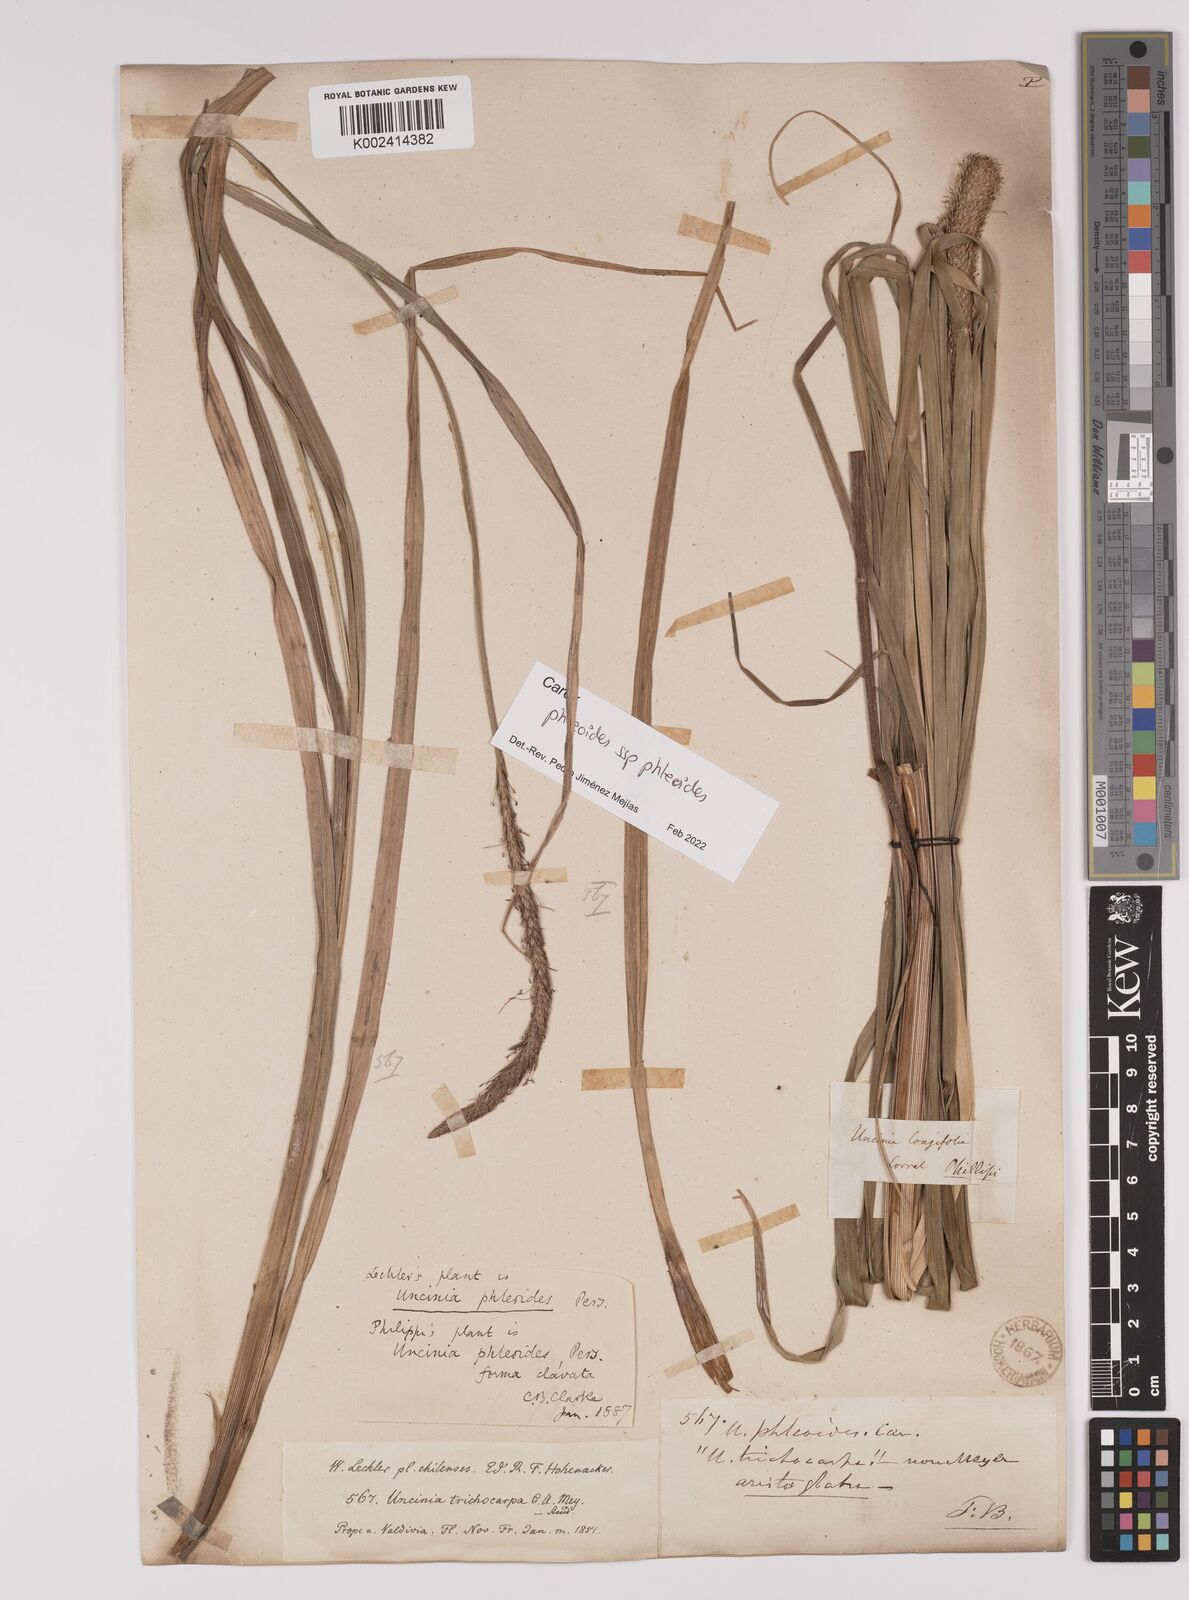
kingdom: Plantae
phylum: Tracheophyta
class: Liliopsida
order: Poales
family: Cyperaceae
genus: Carex
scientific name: Carex phleoides
